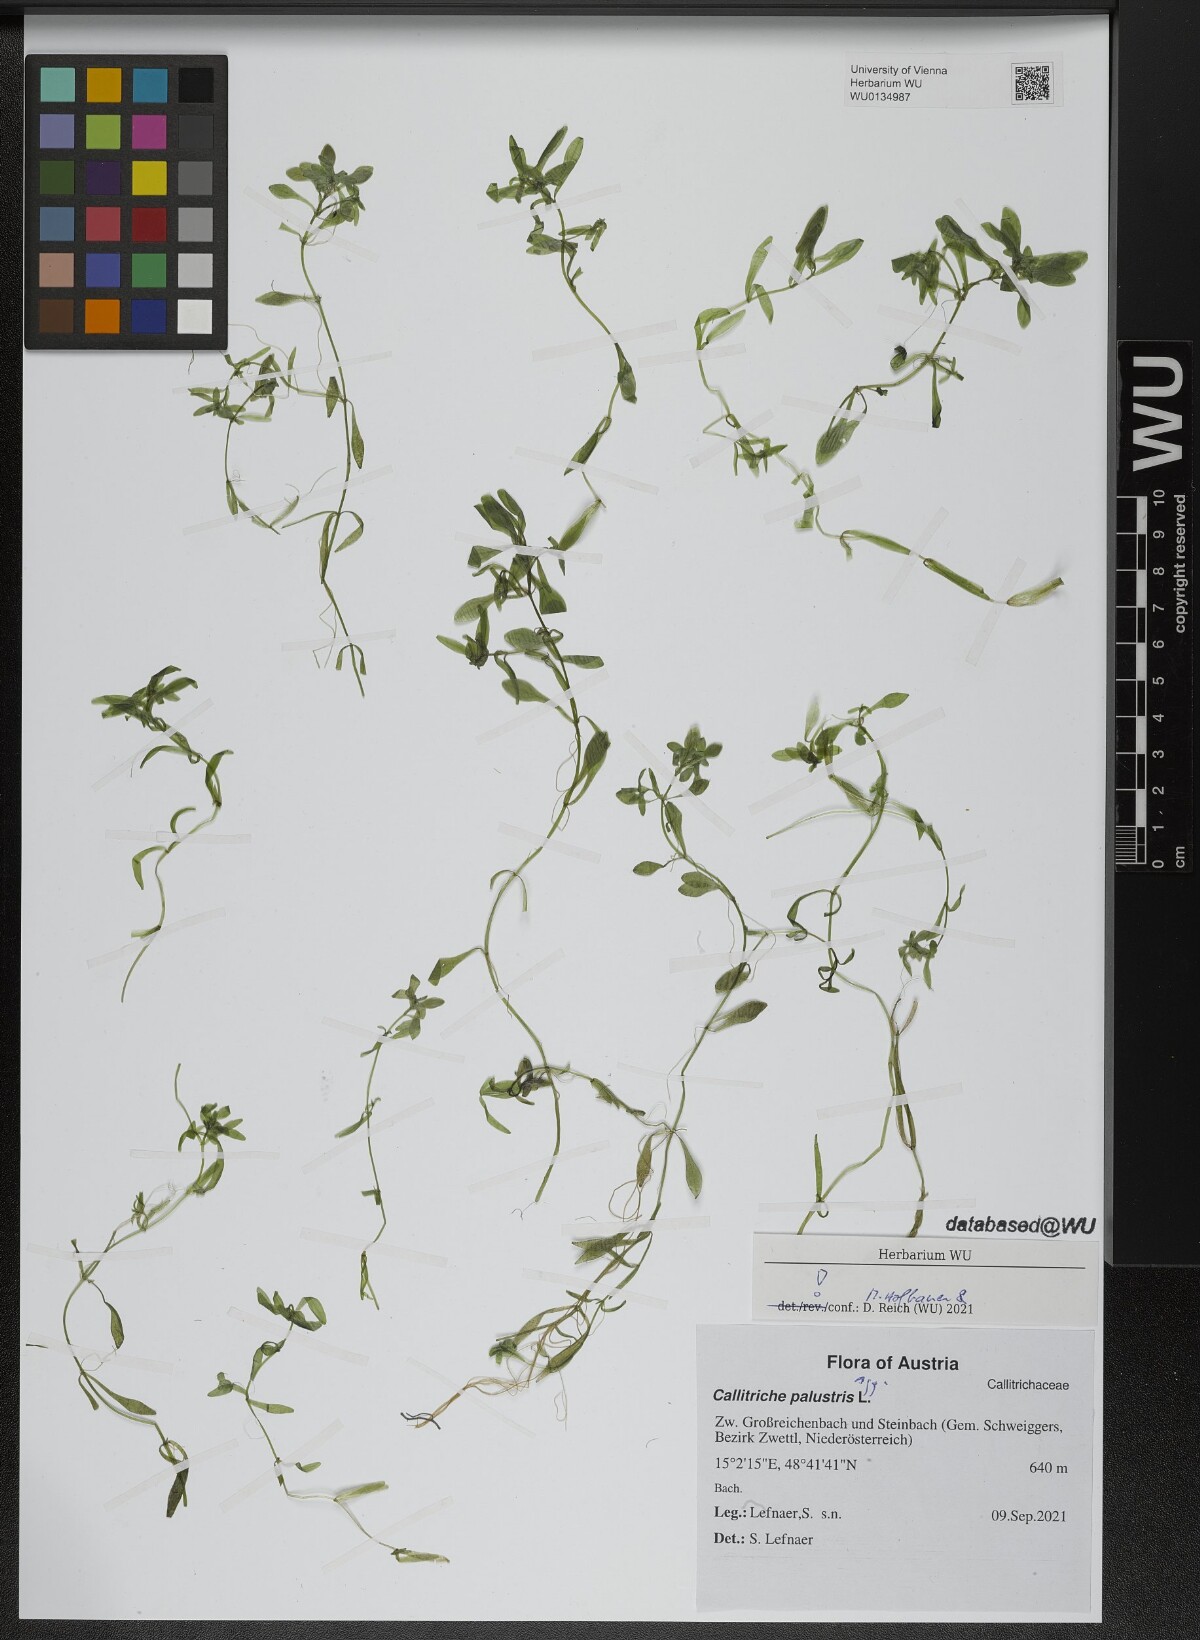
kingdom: Plantae
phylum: Tracheophyta
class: Magnoliopsida
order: Lamiales
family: Plantaginaceae
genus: Callitriche
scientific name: Callitriche palustris
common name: Spring water-starwort
